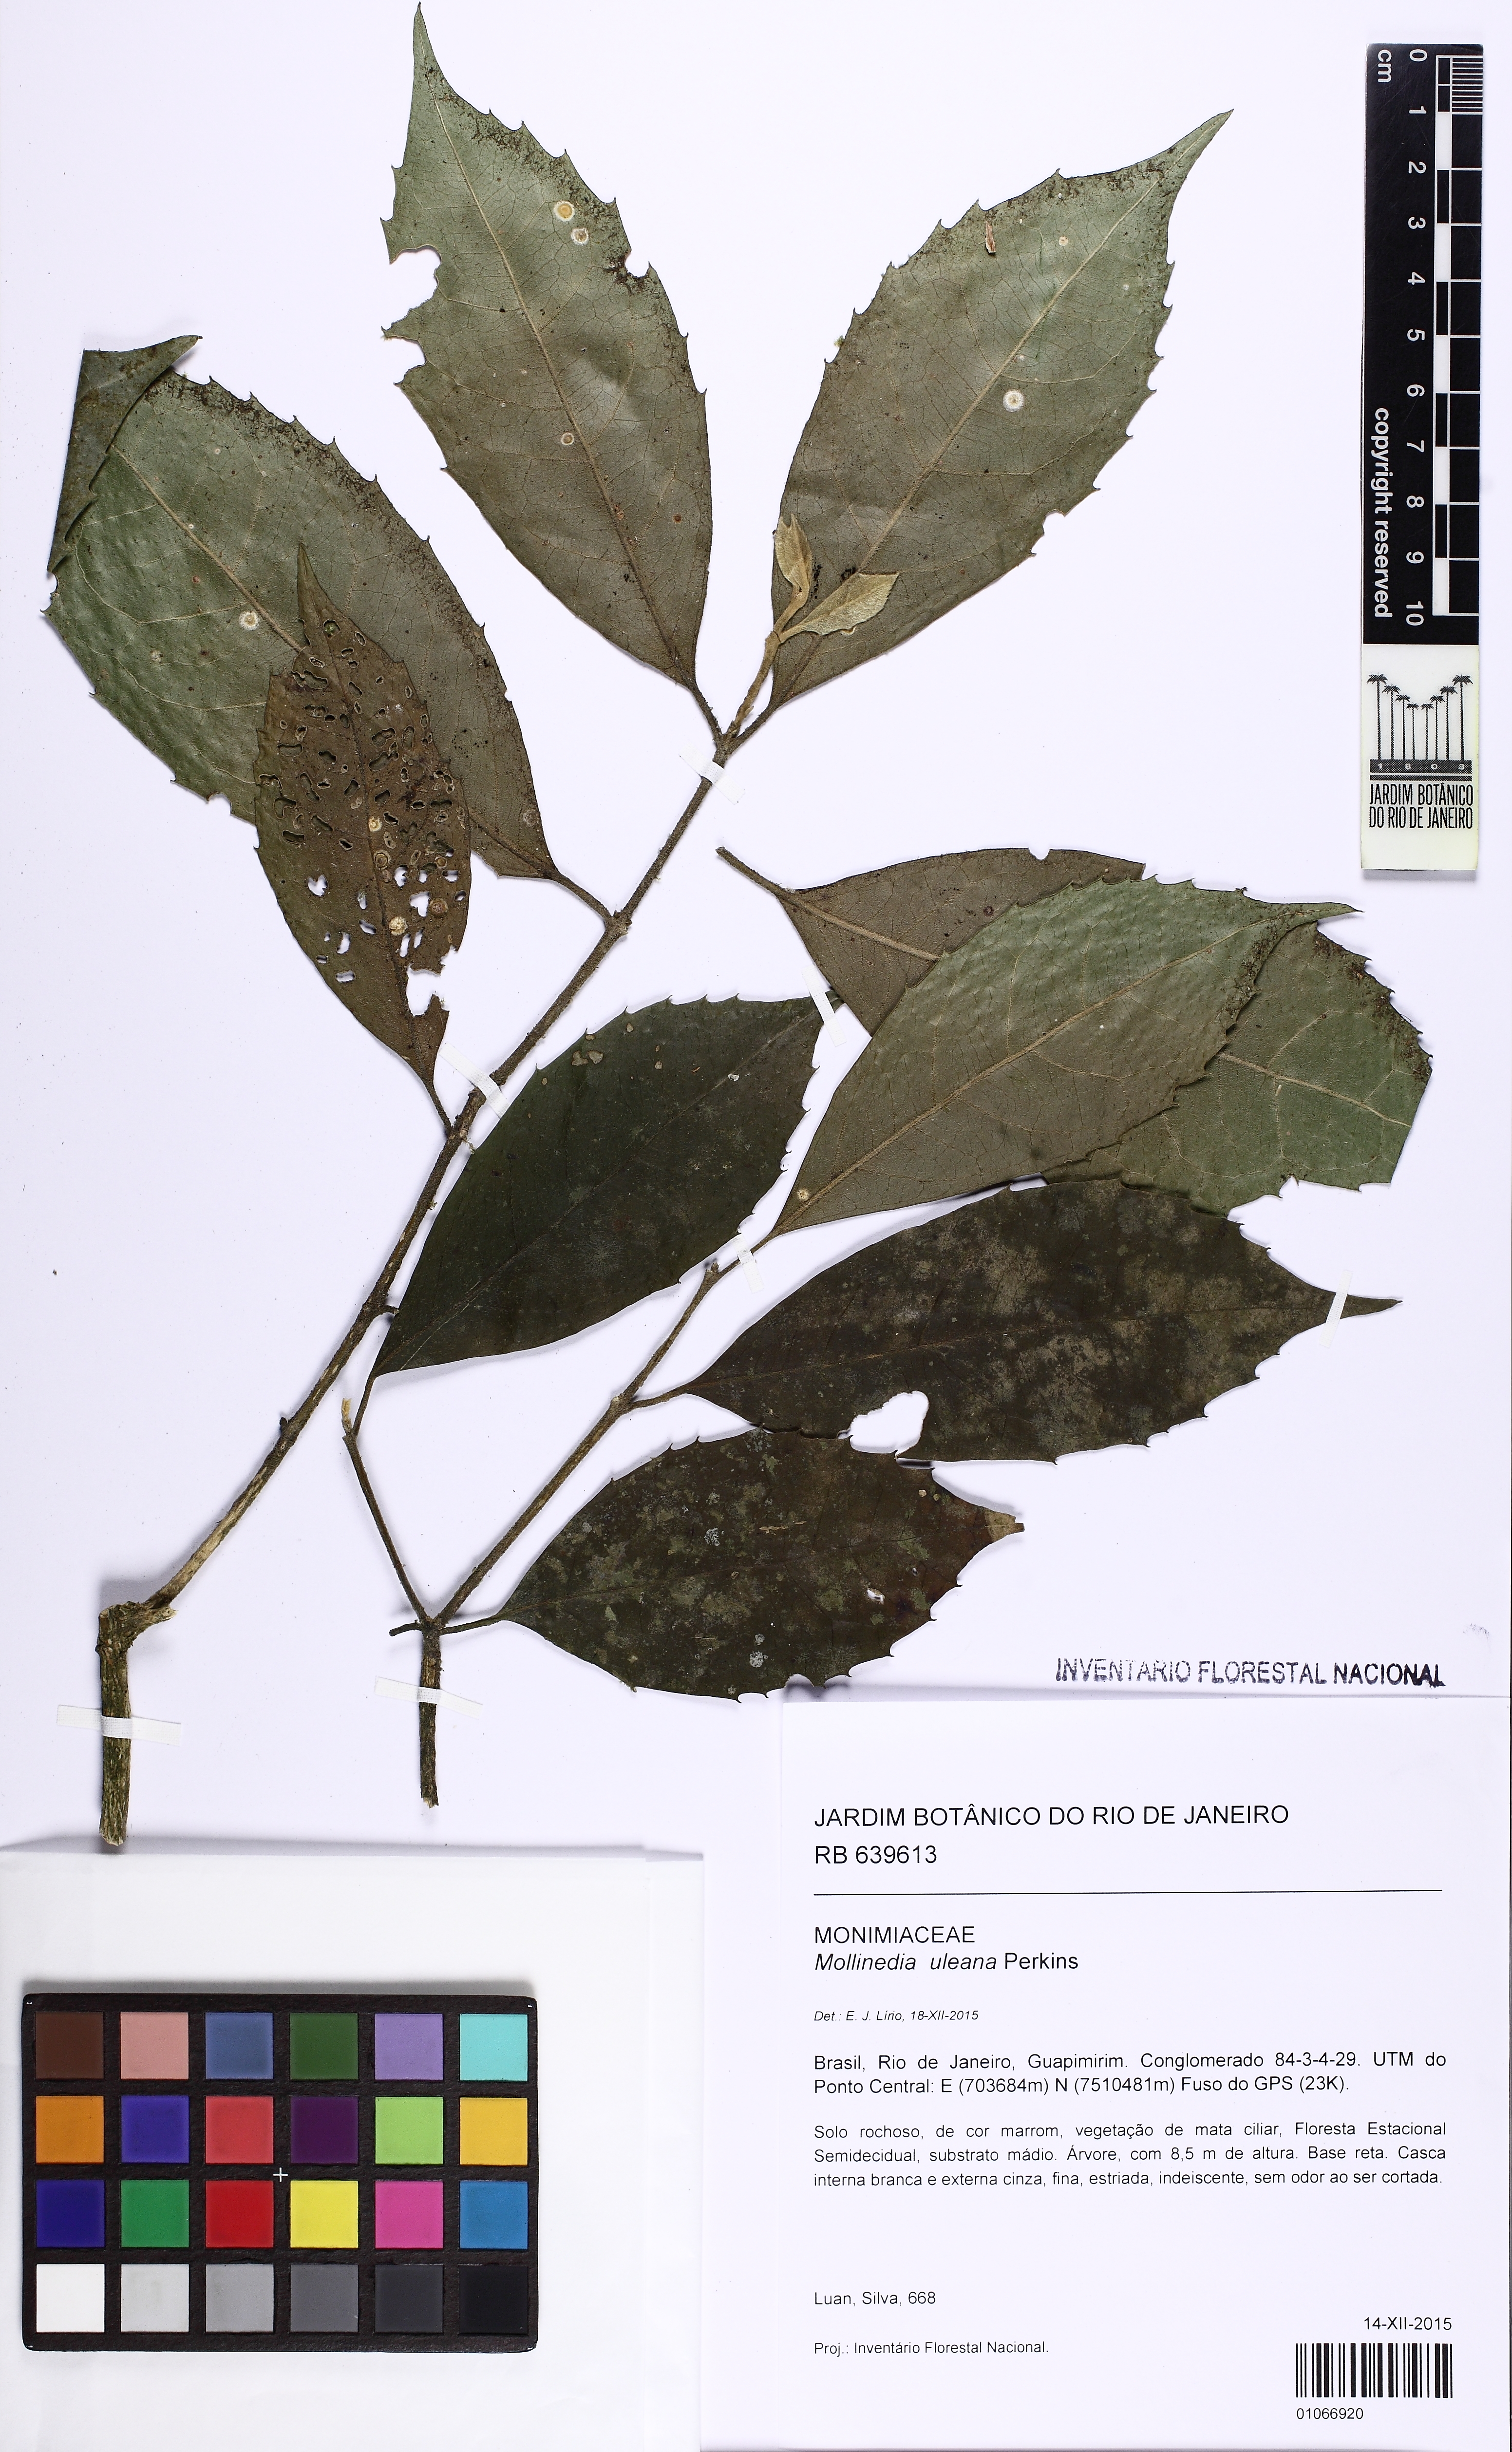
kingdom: Plantae
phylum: Tracheophyta
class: Magnoliopsida
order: Laurales
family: Monimiaceae
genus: Mollinedia
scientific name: Mollinedia uleana
